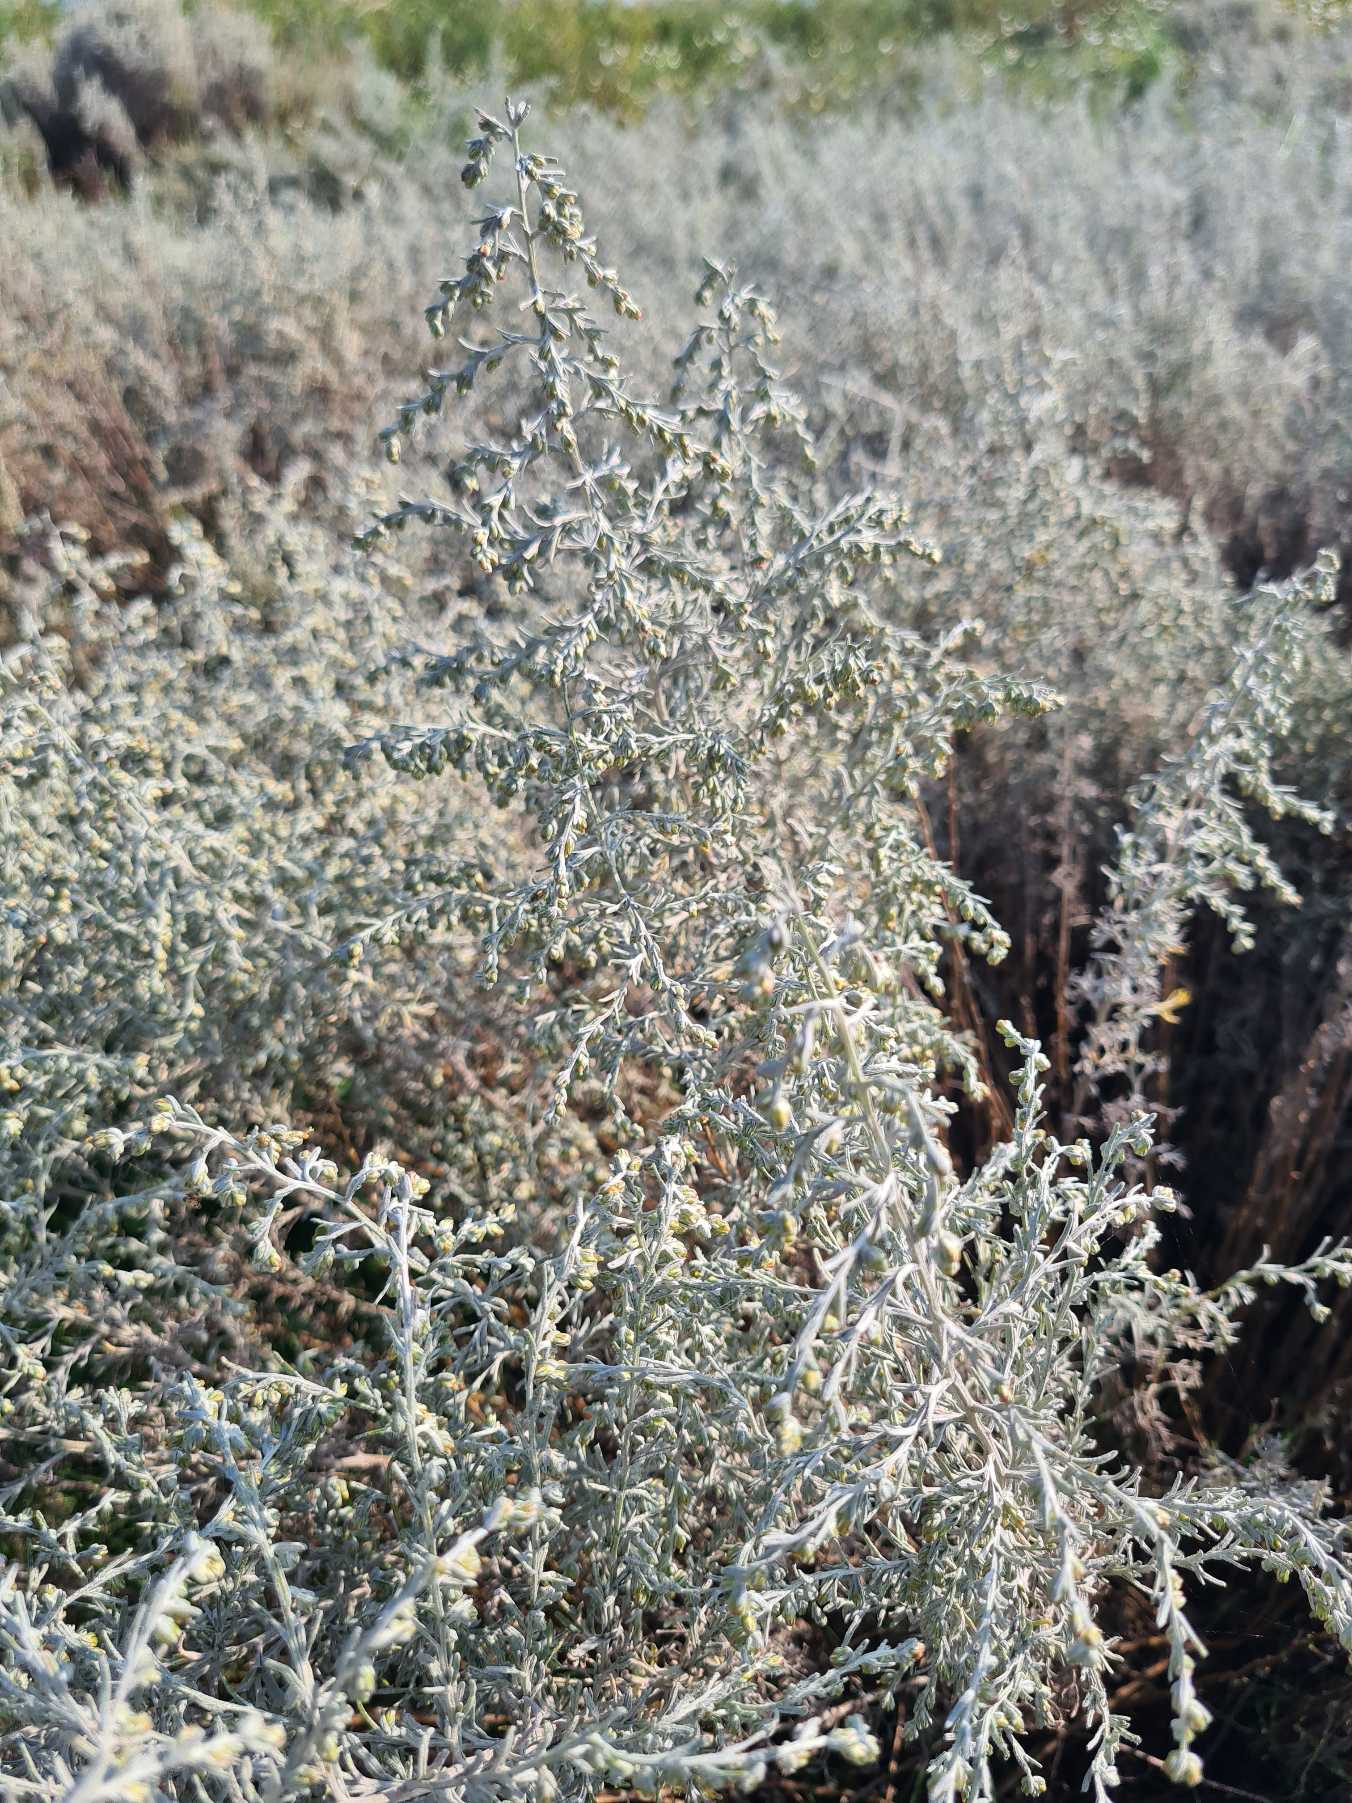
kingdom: Plantae
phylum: Tracheophyta
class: Magnoliopsida
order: Asterales
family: Asteraceae
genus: Artemisia
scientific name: Artemisia maritima
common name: Strandmalurt
